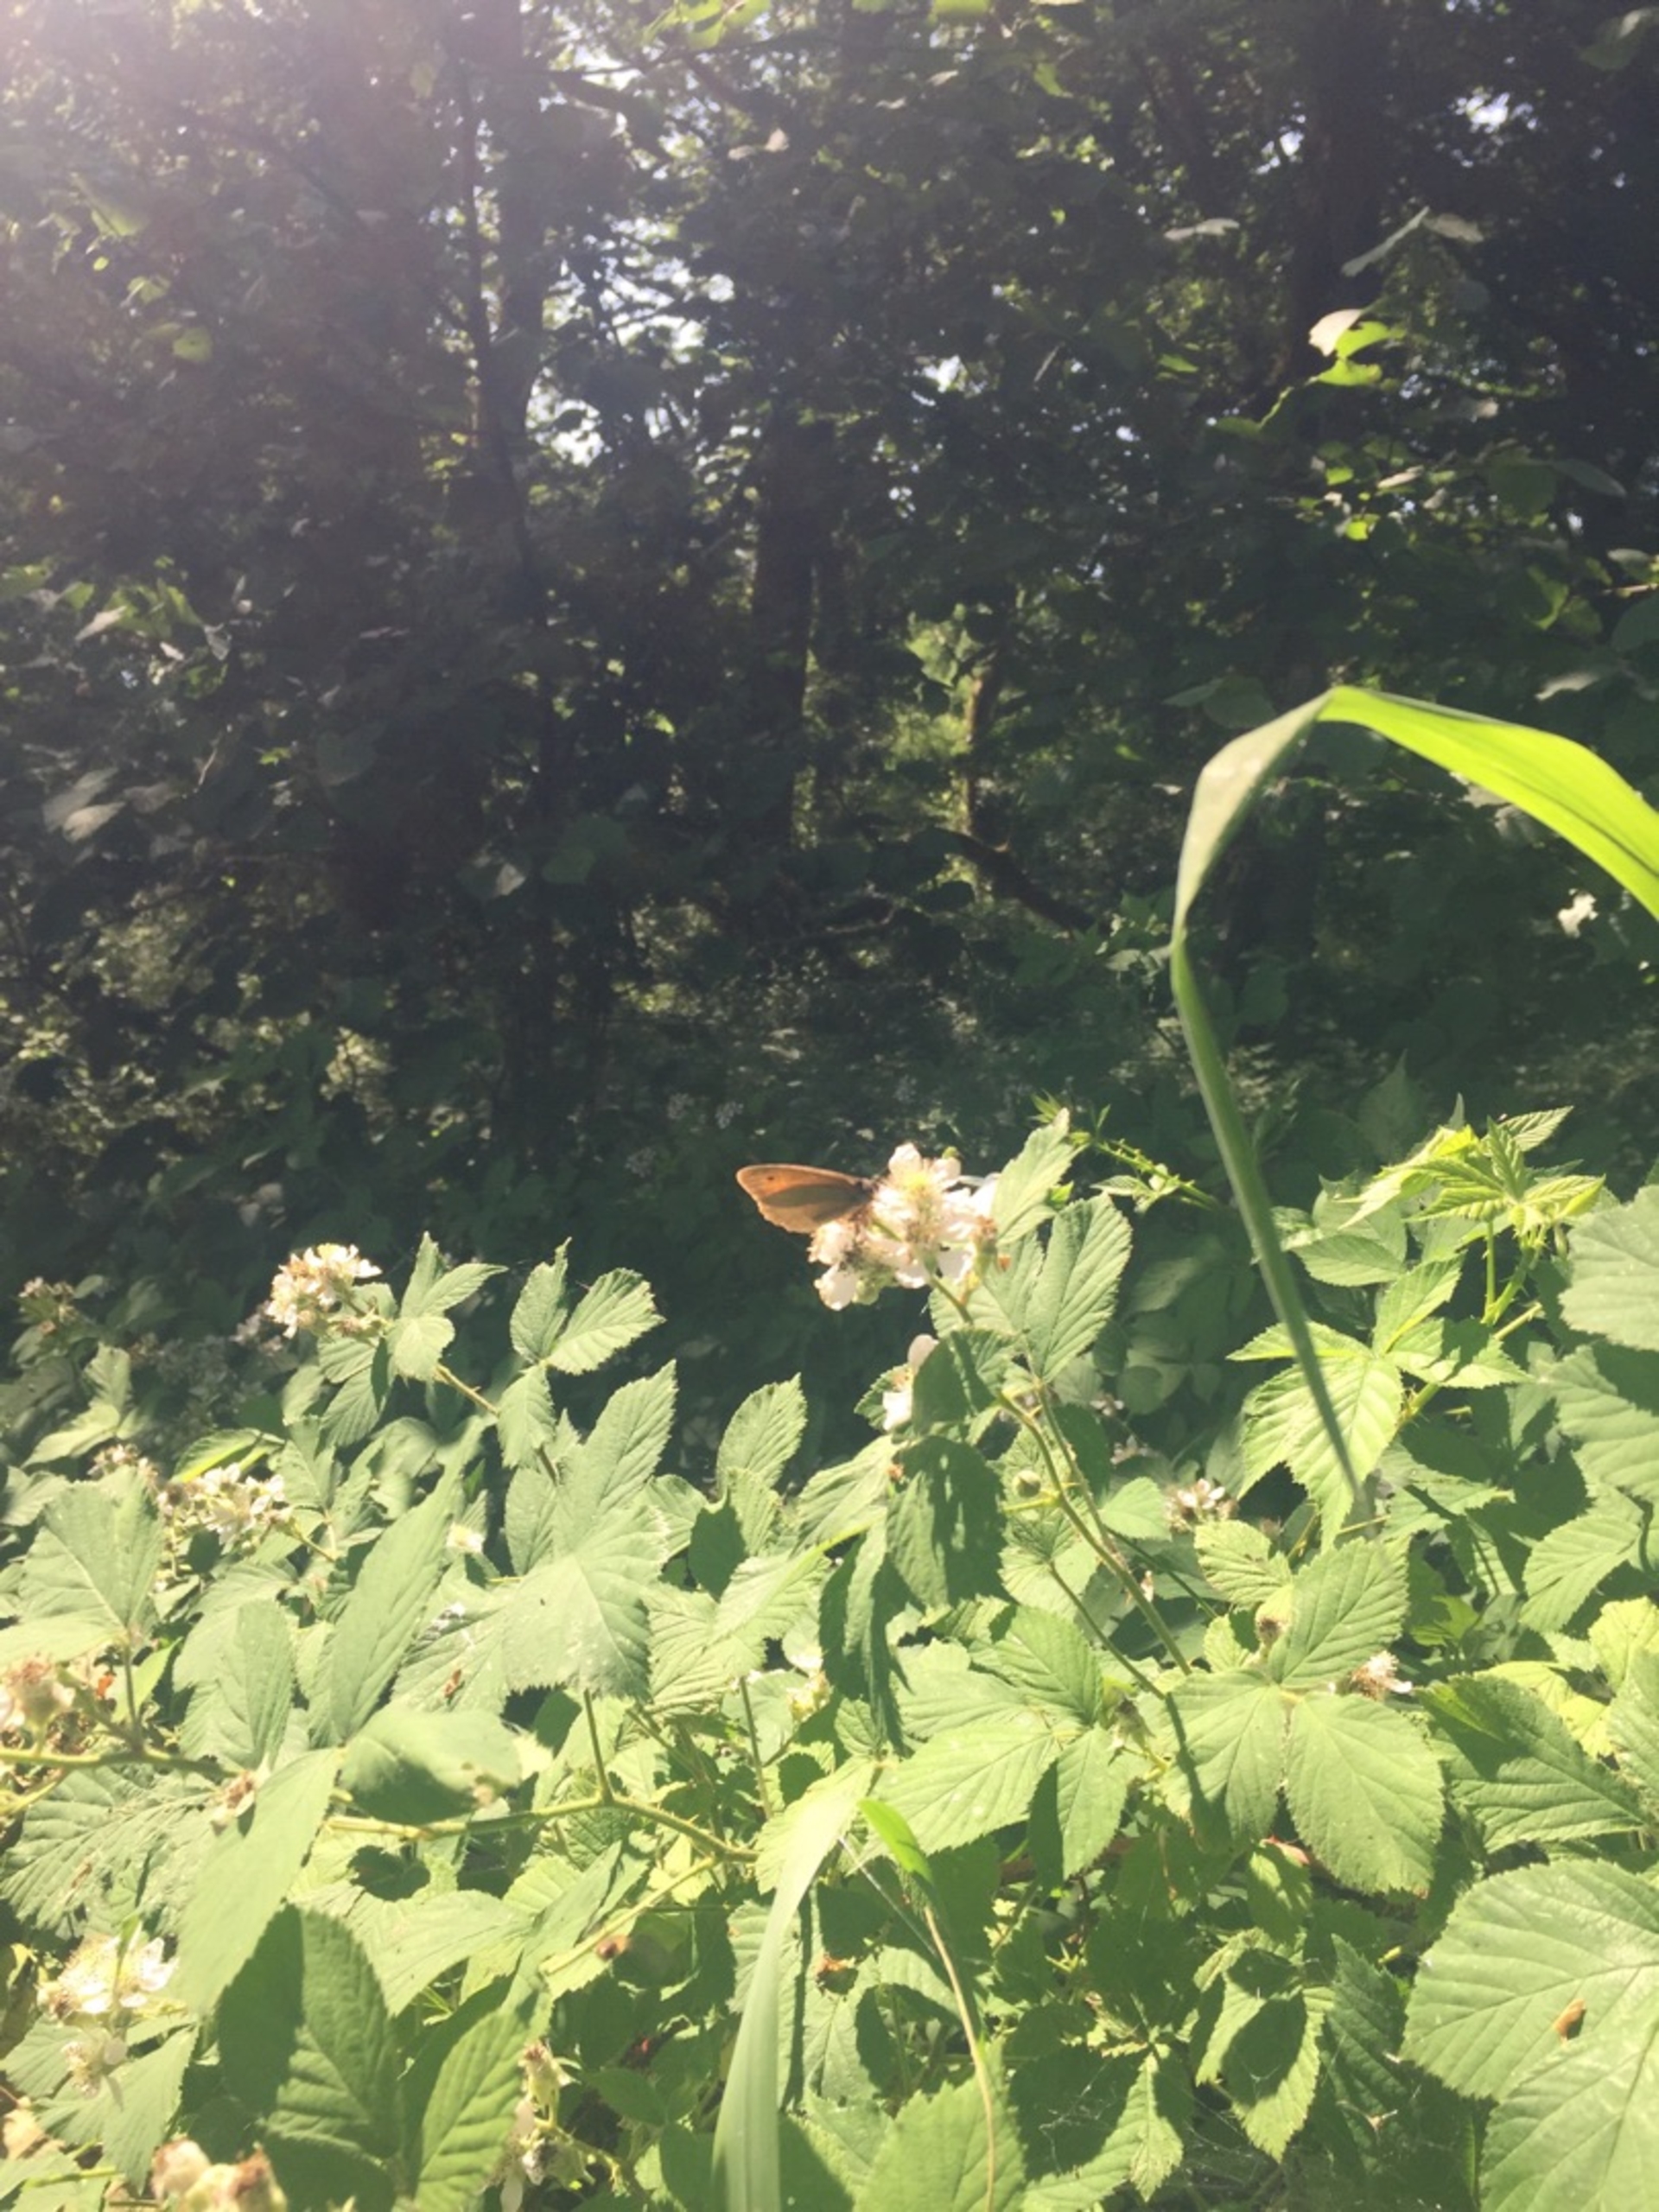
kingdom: Animalia
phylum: Arthropoda
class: Insecta
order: Lepidoptera
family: Nymphalidae
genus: Maniola
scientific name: Maniola jurtina
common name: Græsrandøje
